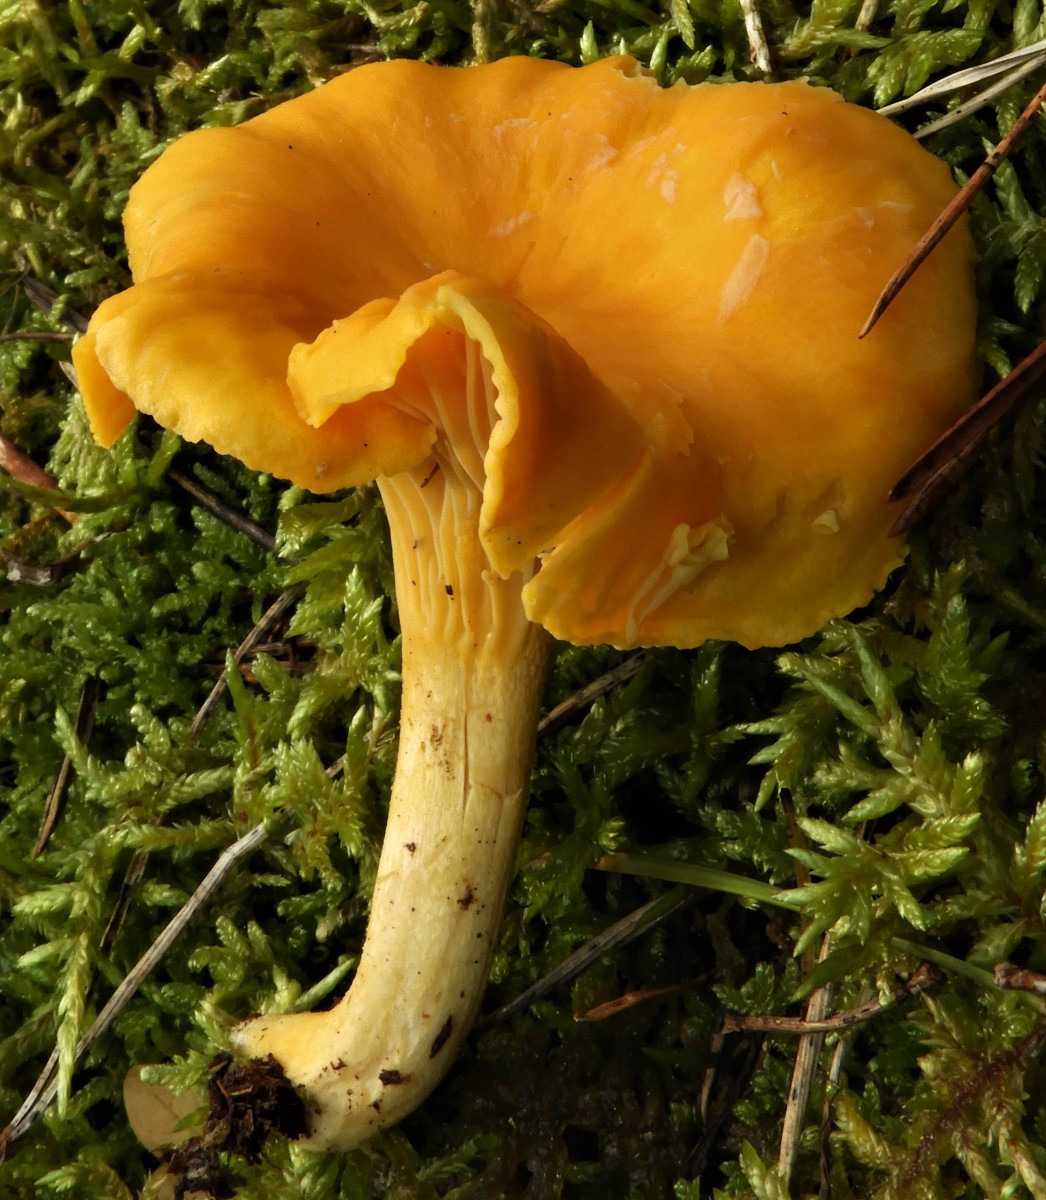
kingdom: Fungi
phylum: Basidiomycota
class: Agaricomycetes
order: Cantharellales
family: Hydnaceae
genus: Cantharellus
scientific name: Cantharellus cibarius
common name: almindelig kantarel
